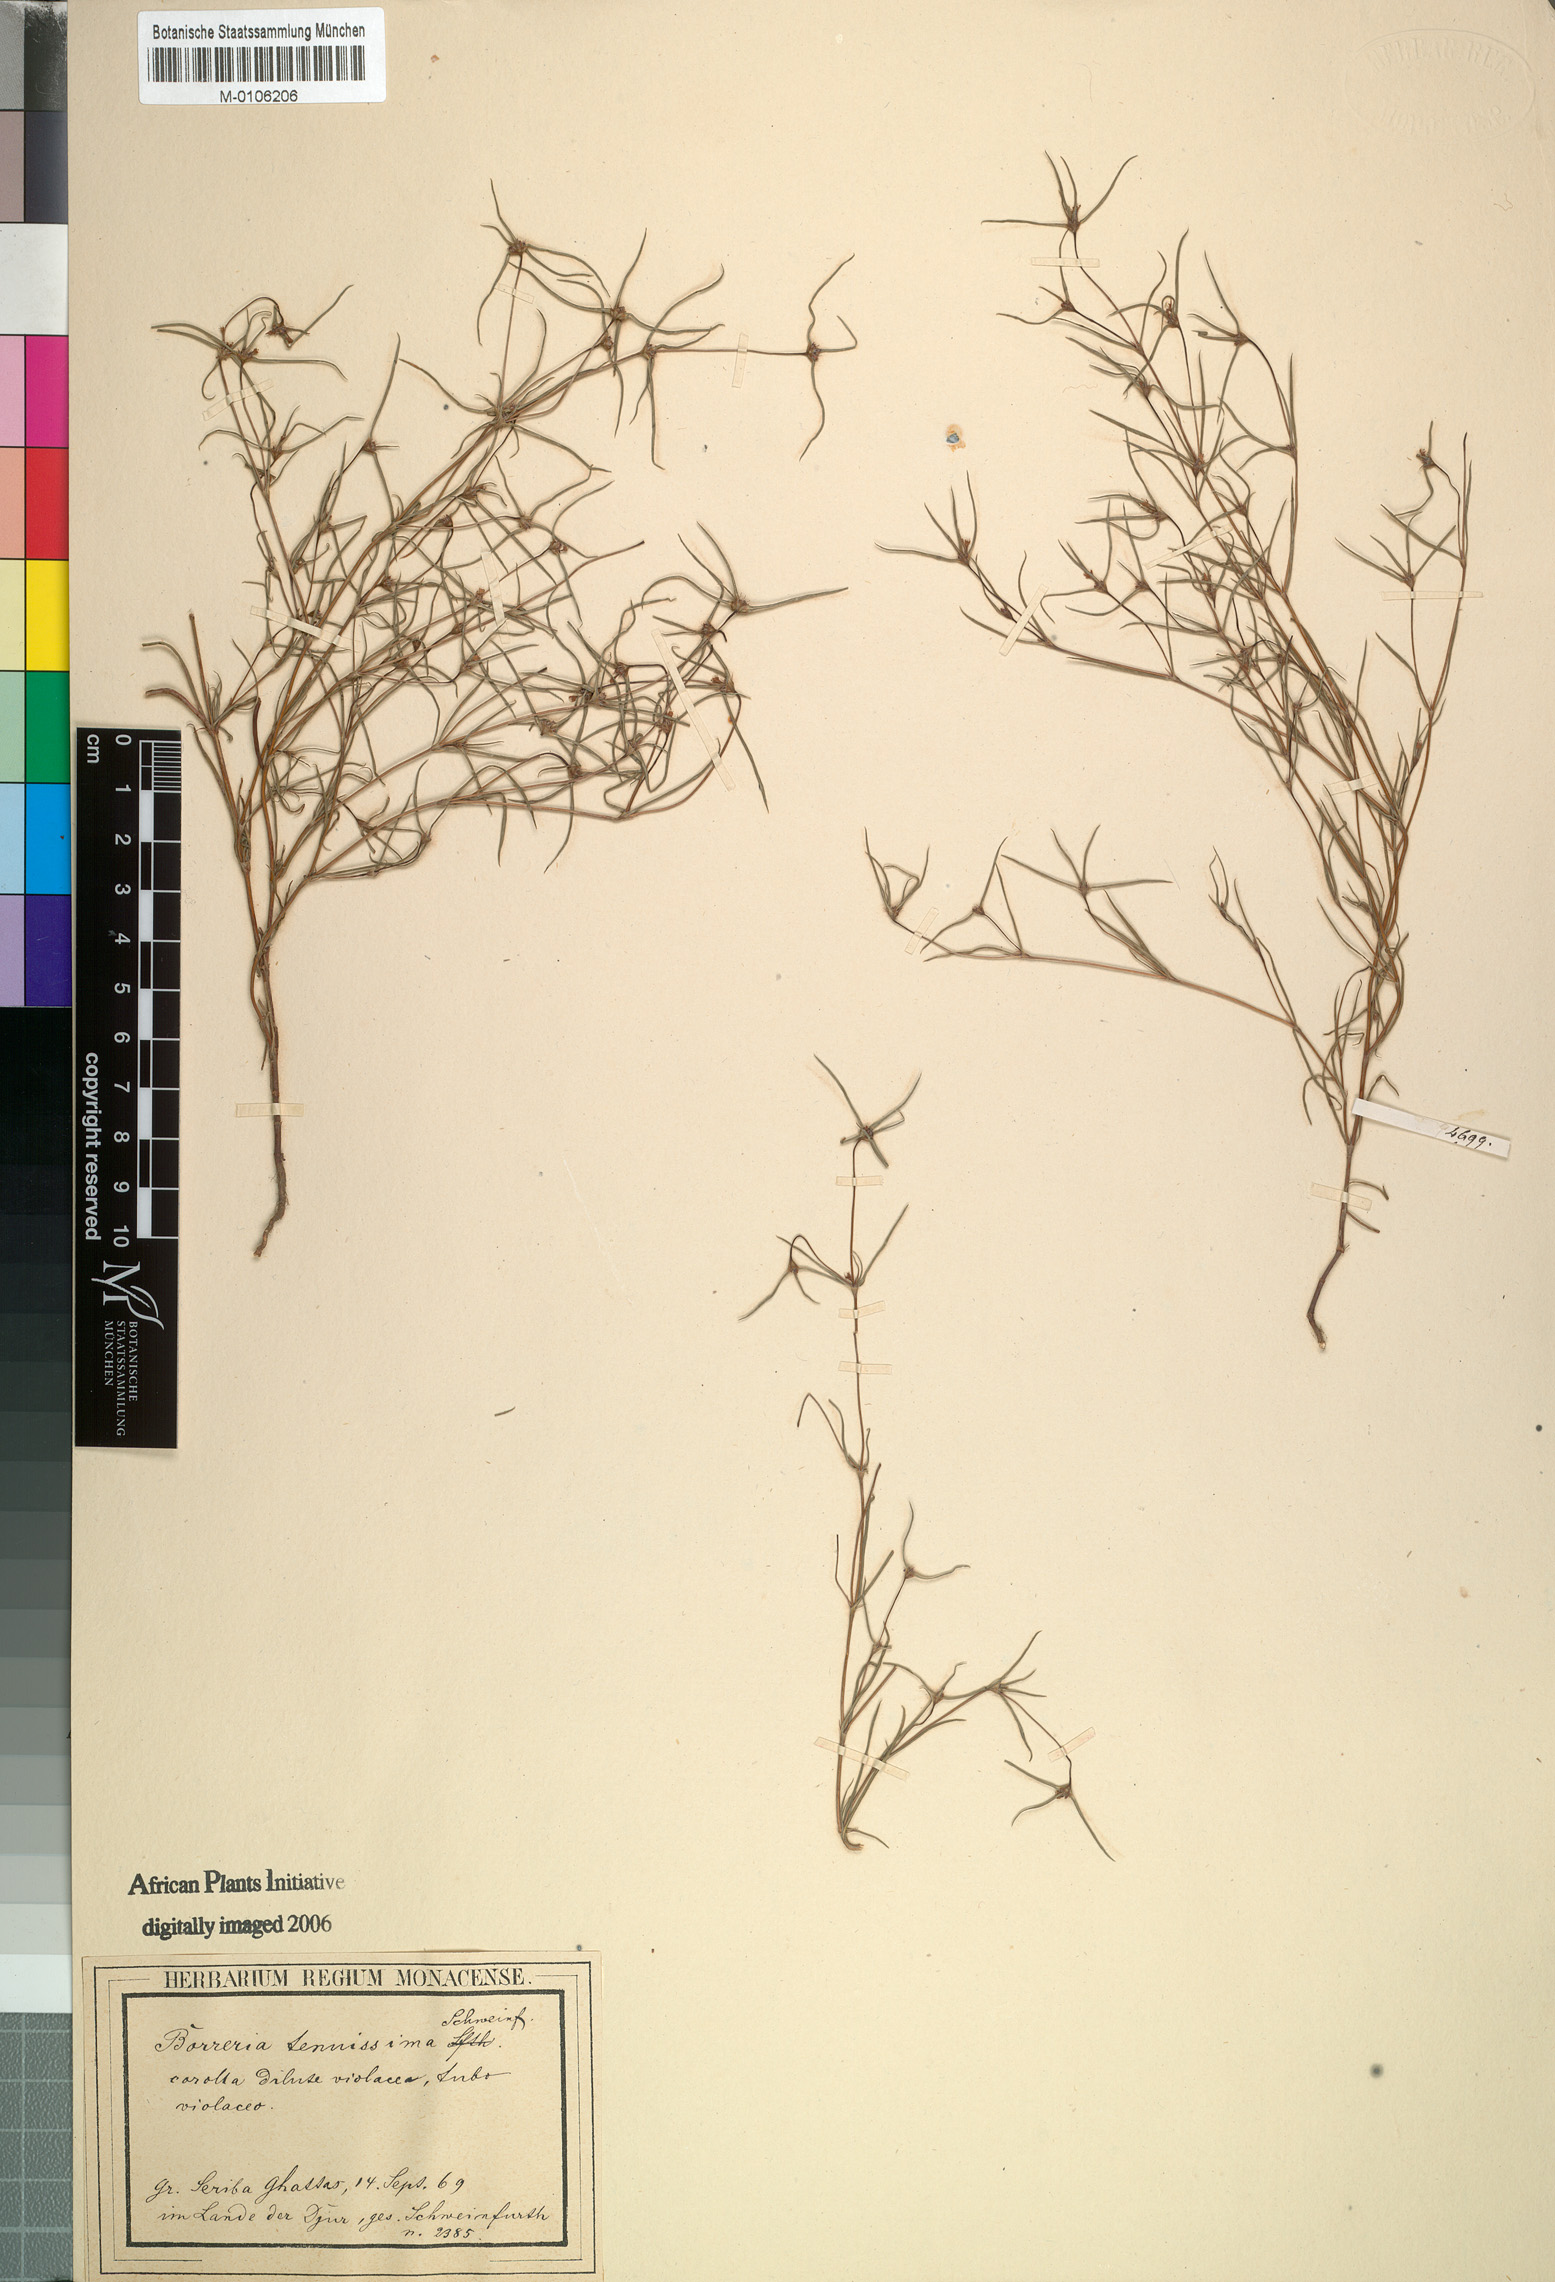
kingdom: Plantae
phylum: Tracheophyta
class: Magnoliopsida
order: Gentianales
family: Rubiaceae
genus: Spermacoce
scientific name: Spermacoce tenuissima
